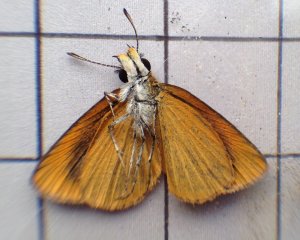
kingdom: Animalia
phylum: Arthropoda
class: Insecta
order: Lepidoptera
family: Hesperiidae
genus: Ancyloxypha
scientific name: Ancyloxypha numitor
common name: Least Skipper
